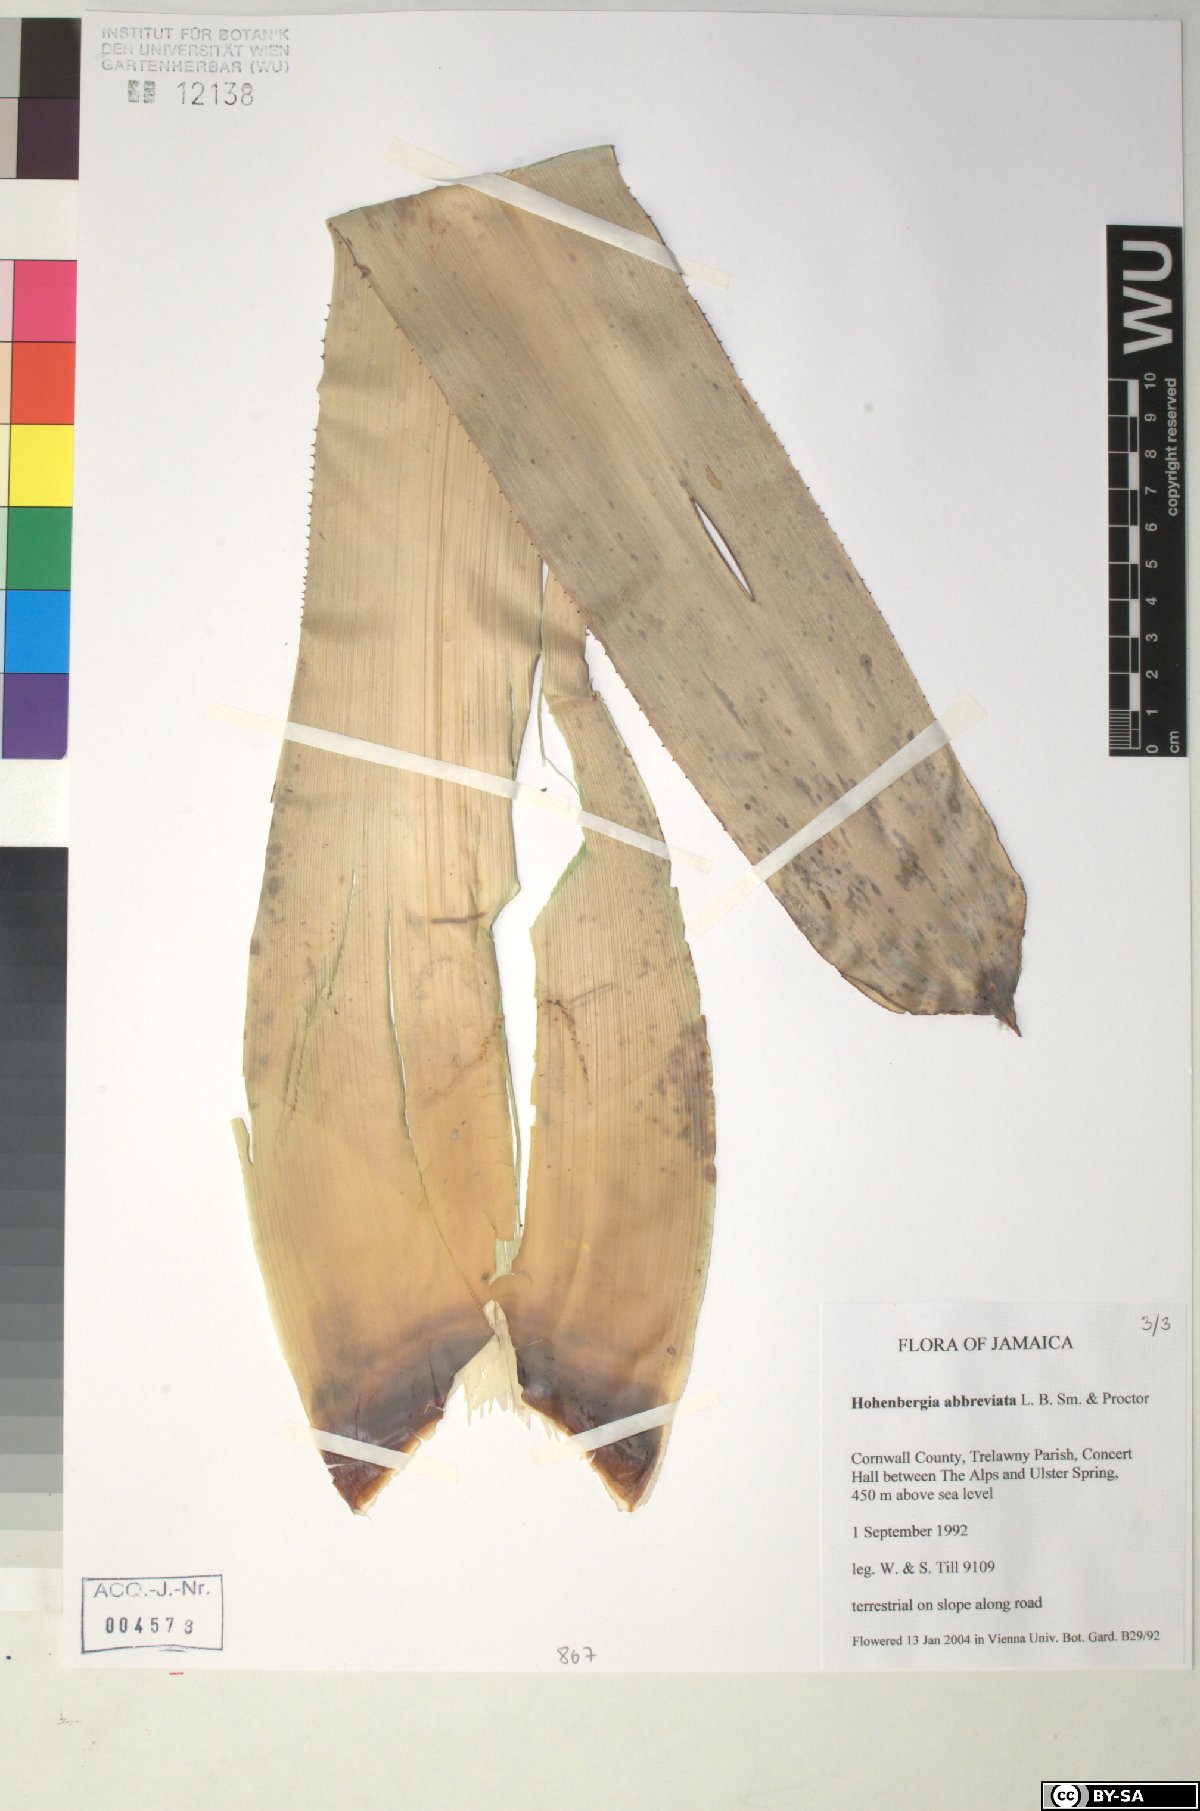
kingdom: Plantae
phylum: Tracheophyta
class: Liliopsida
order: Poales
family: Bromeliaceae
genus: Wittmackia
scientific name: Wittmackia abbreviata
